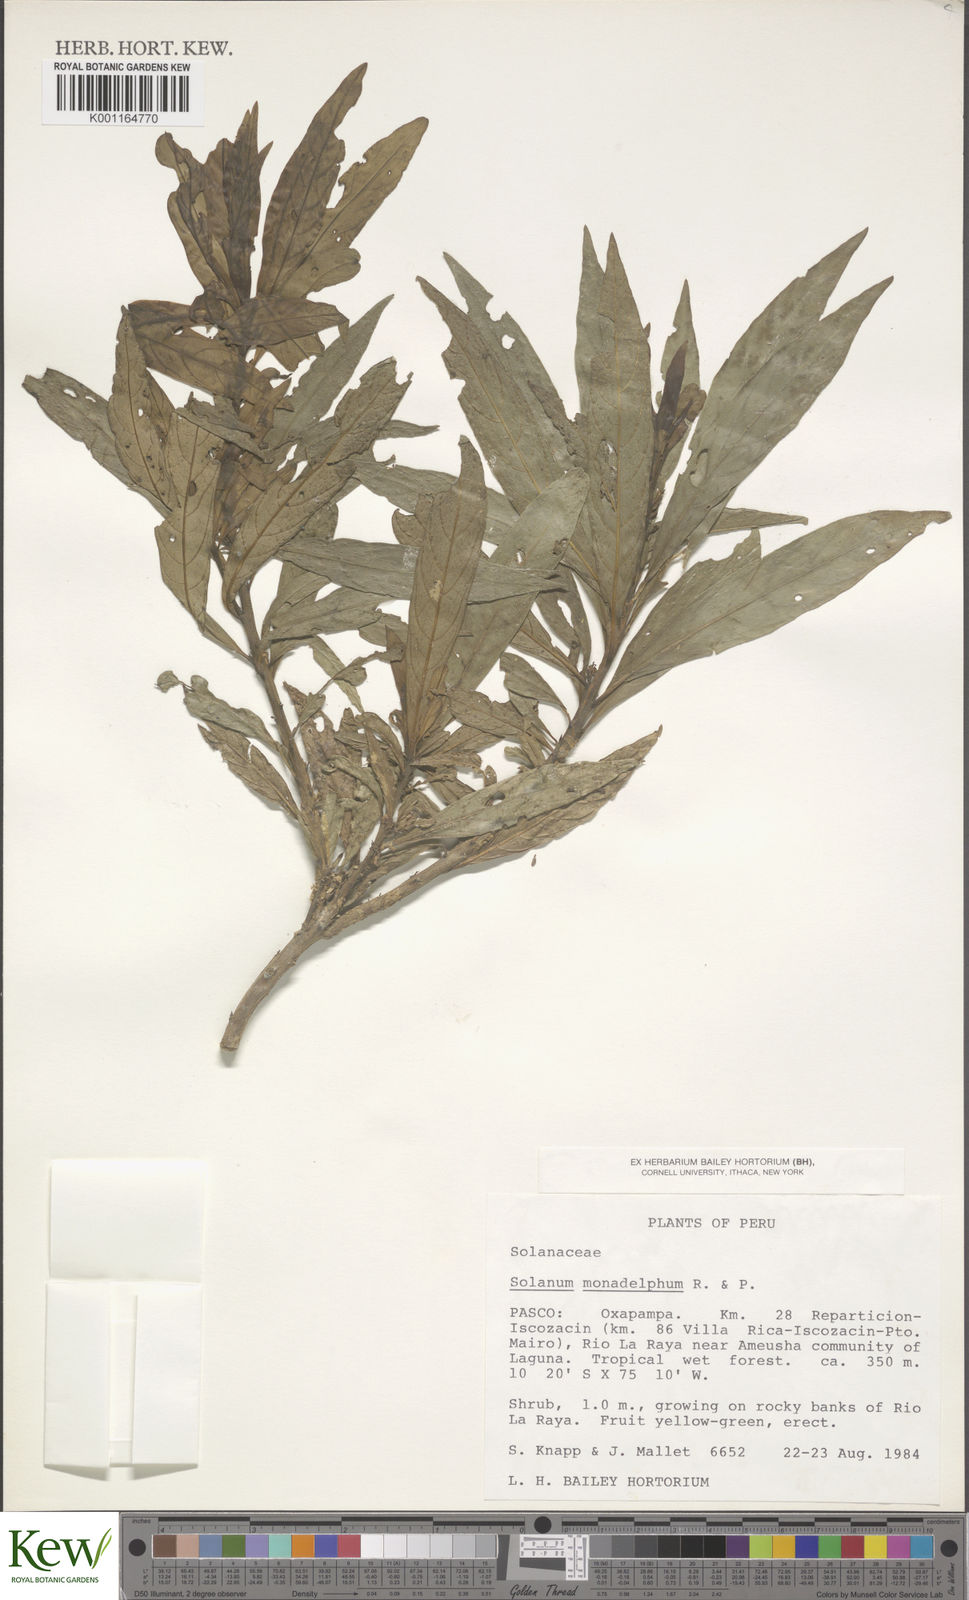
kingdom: Plantae
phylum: Tracheophyta
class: Magnoliopsida
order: Solanales
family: Solanaceae
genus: Solanum
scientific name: Solanum monadelphum
